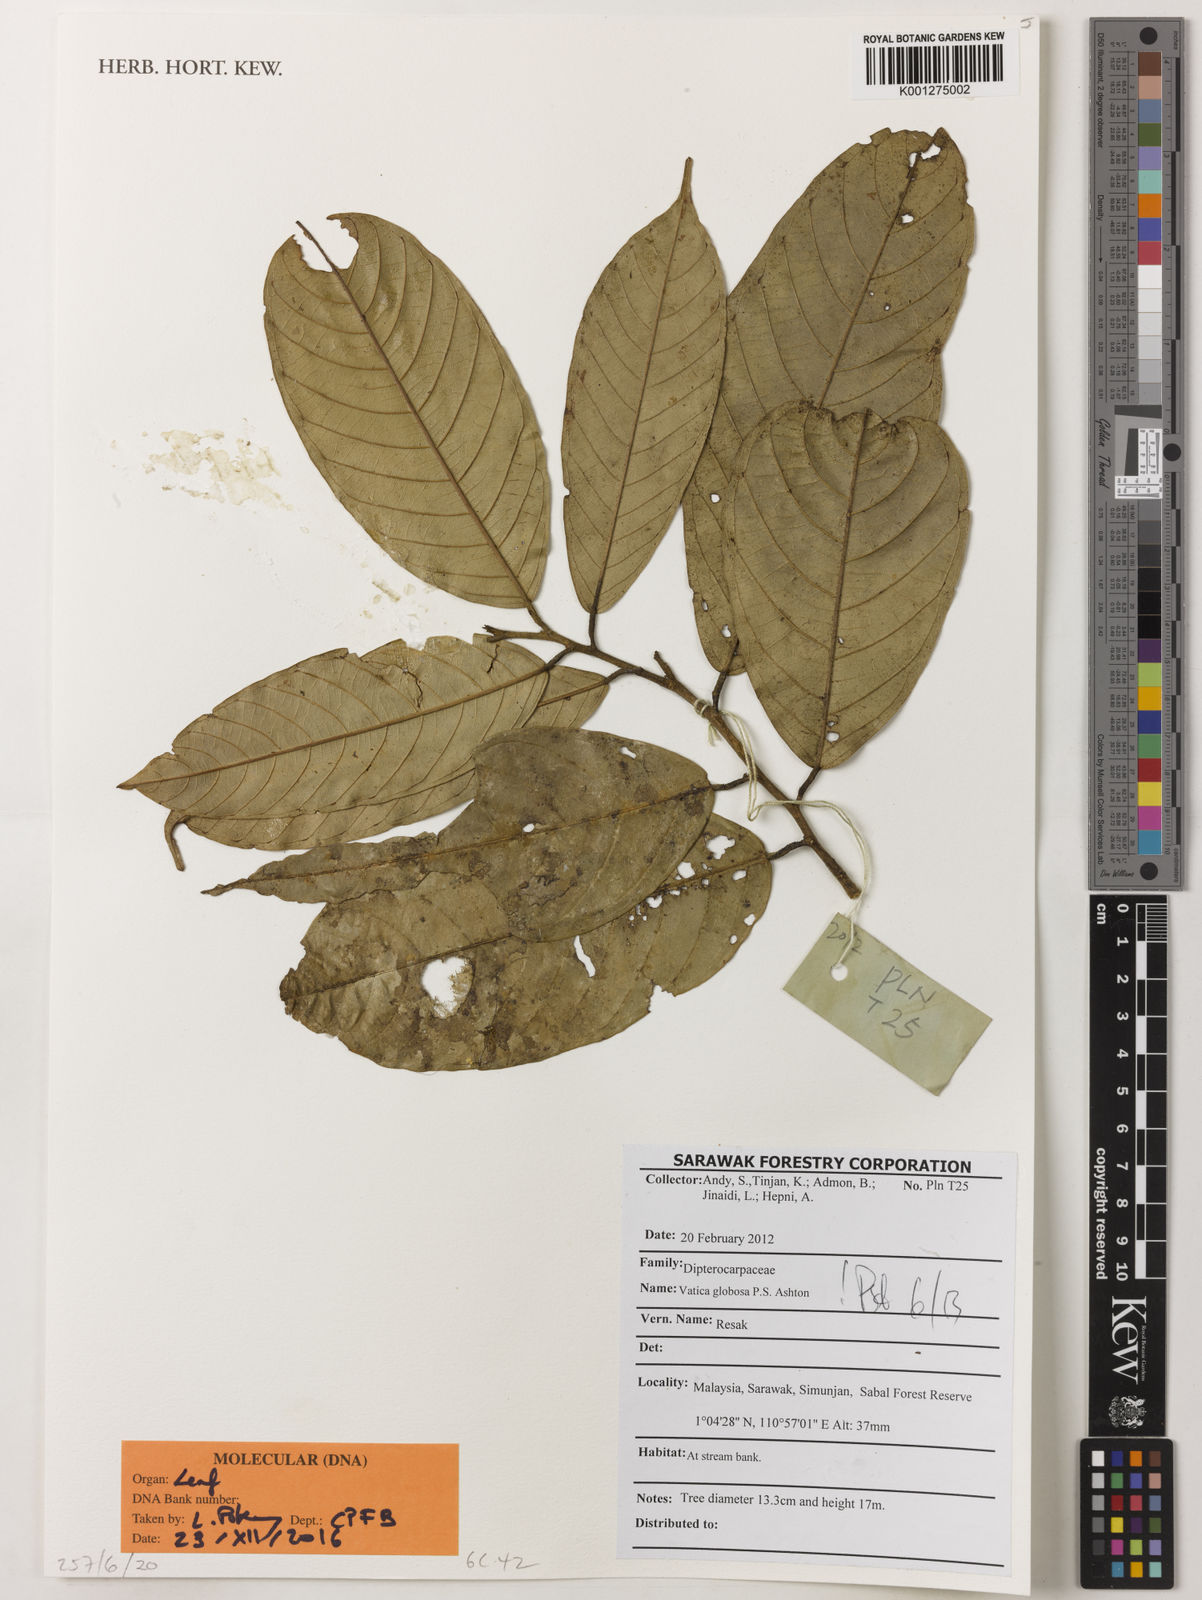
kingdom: Plantae
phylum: Tracheophyta
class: Magnoliopsida
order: Malvales
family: Dipterocarpaceae
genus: Vatica
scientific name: Vatica globosa
